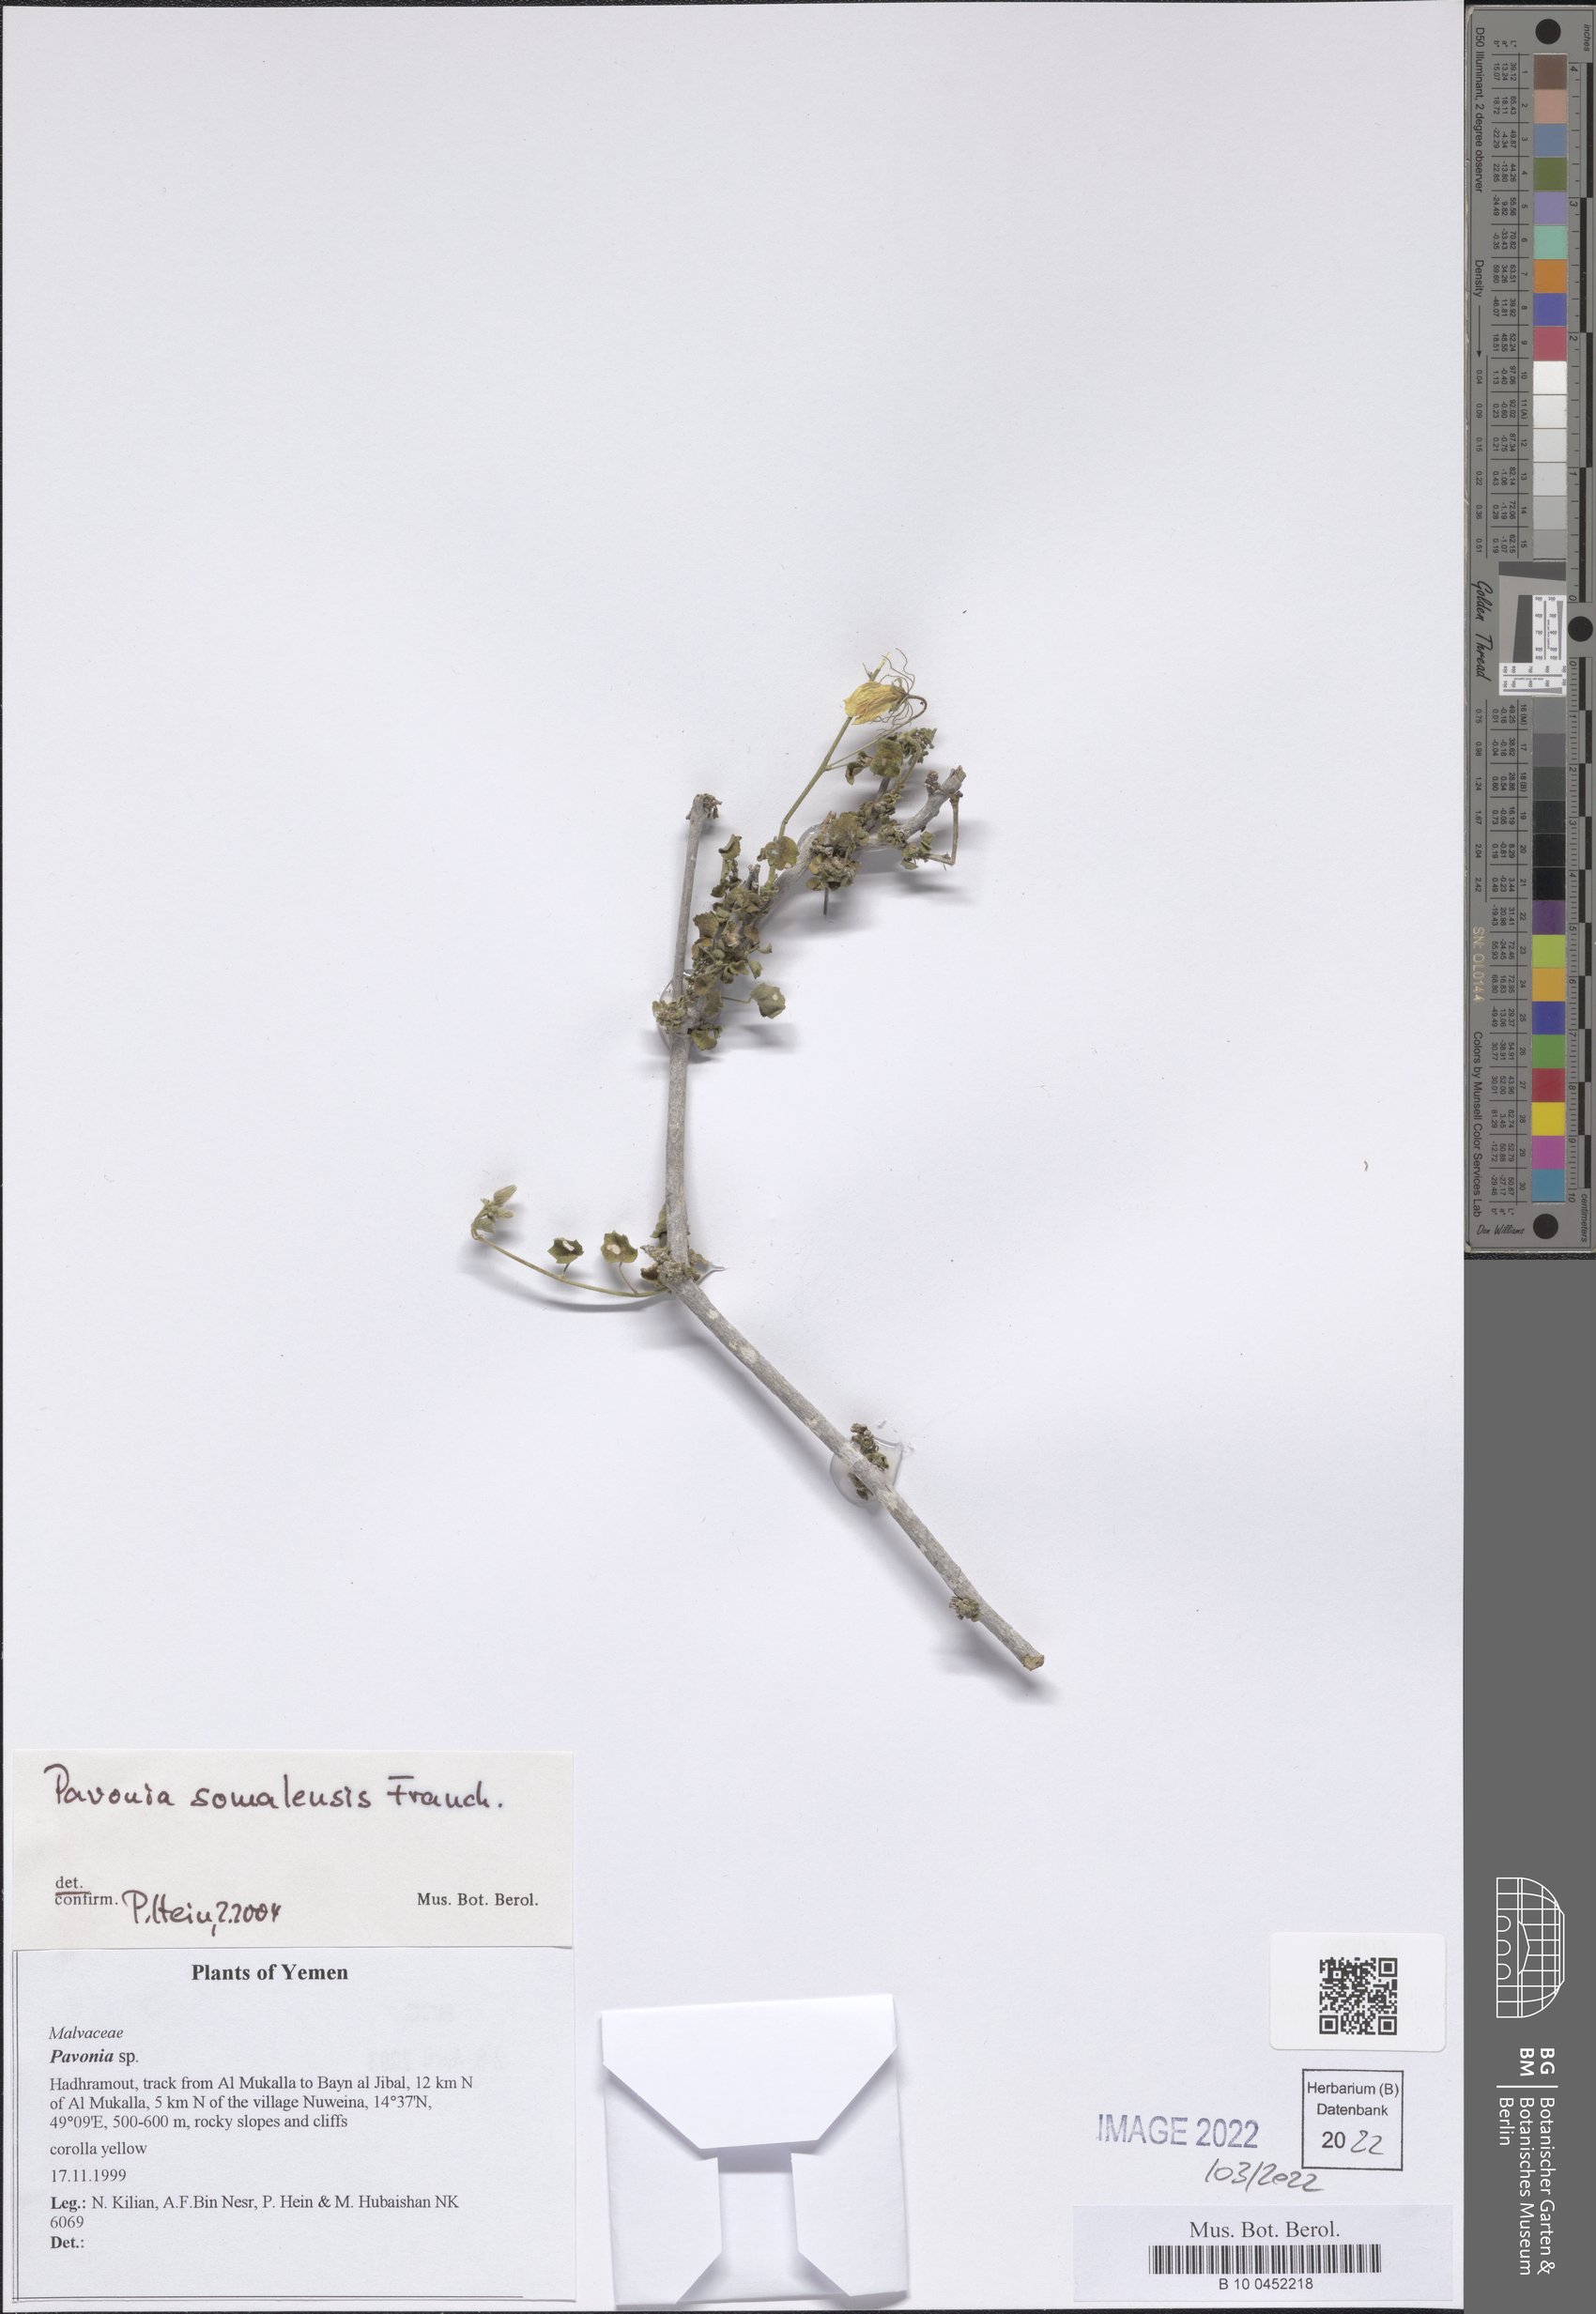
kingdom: Plantae
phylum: Tracheophyta
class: Magnoliopsida
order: Malvales
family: Malvaceae
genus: Pavonia
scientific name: Pavonia somalensis
